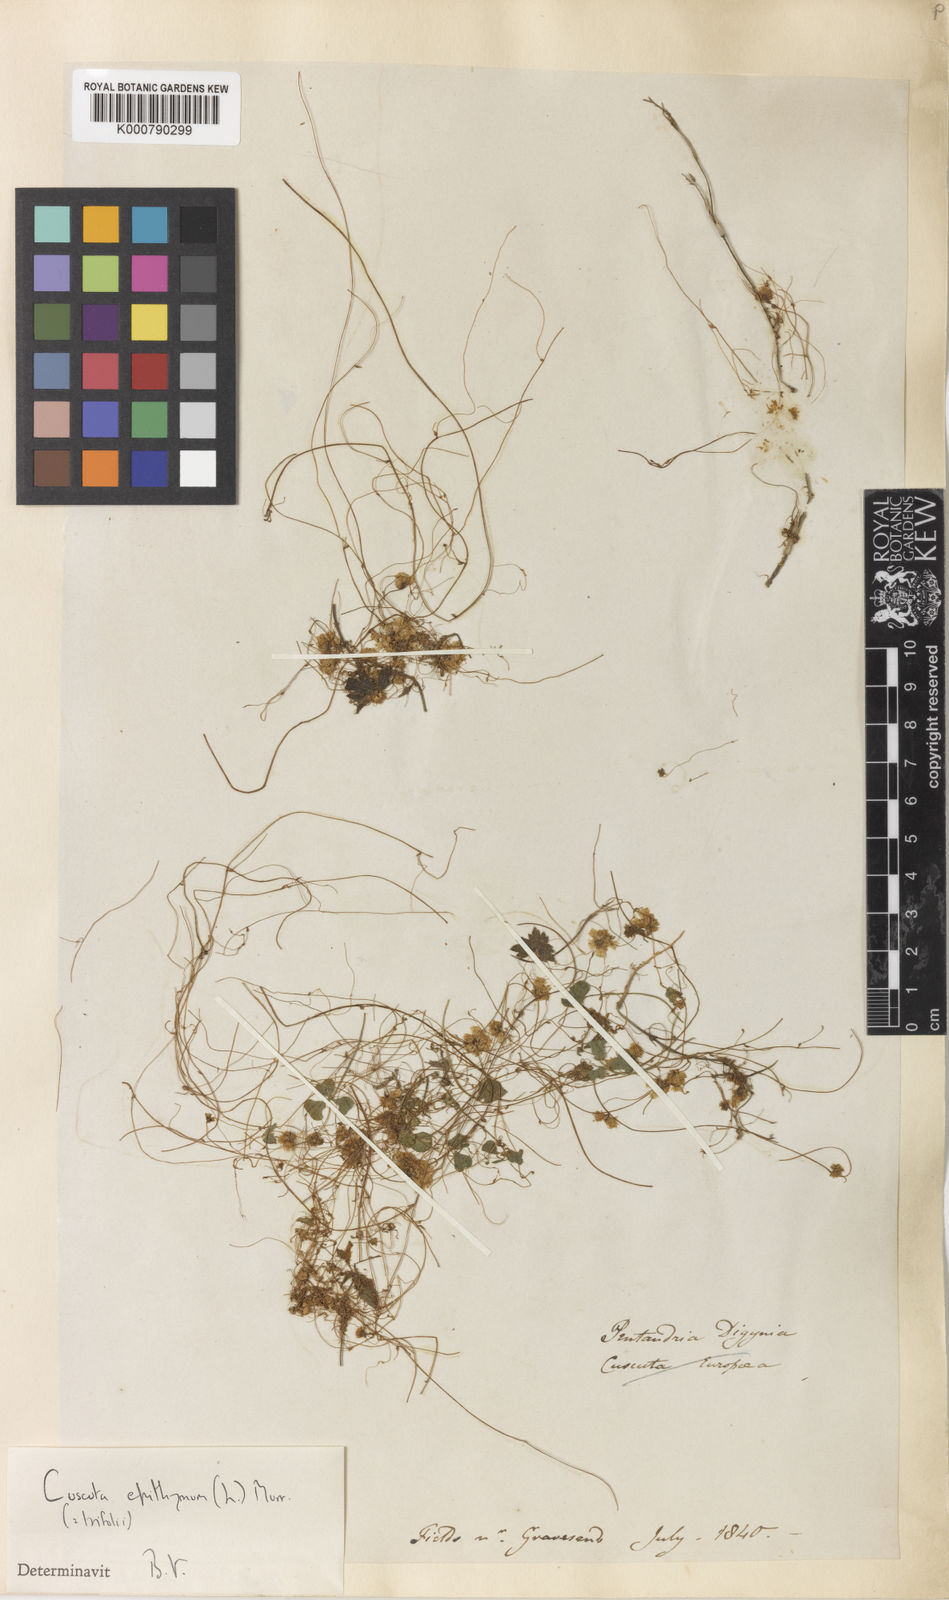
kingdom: Plantae
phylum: Tracheophyta
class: Magnoliopsida
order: Solanales
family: Convolvulaceae
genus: Cuscuta
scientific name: Cuscuta epithymum
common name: Clover dodder
